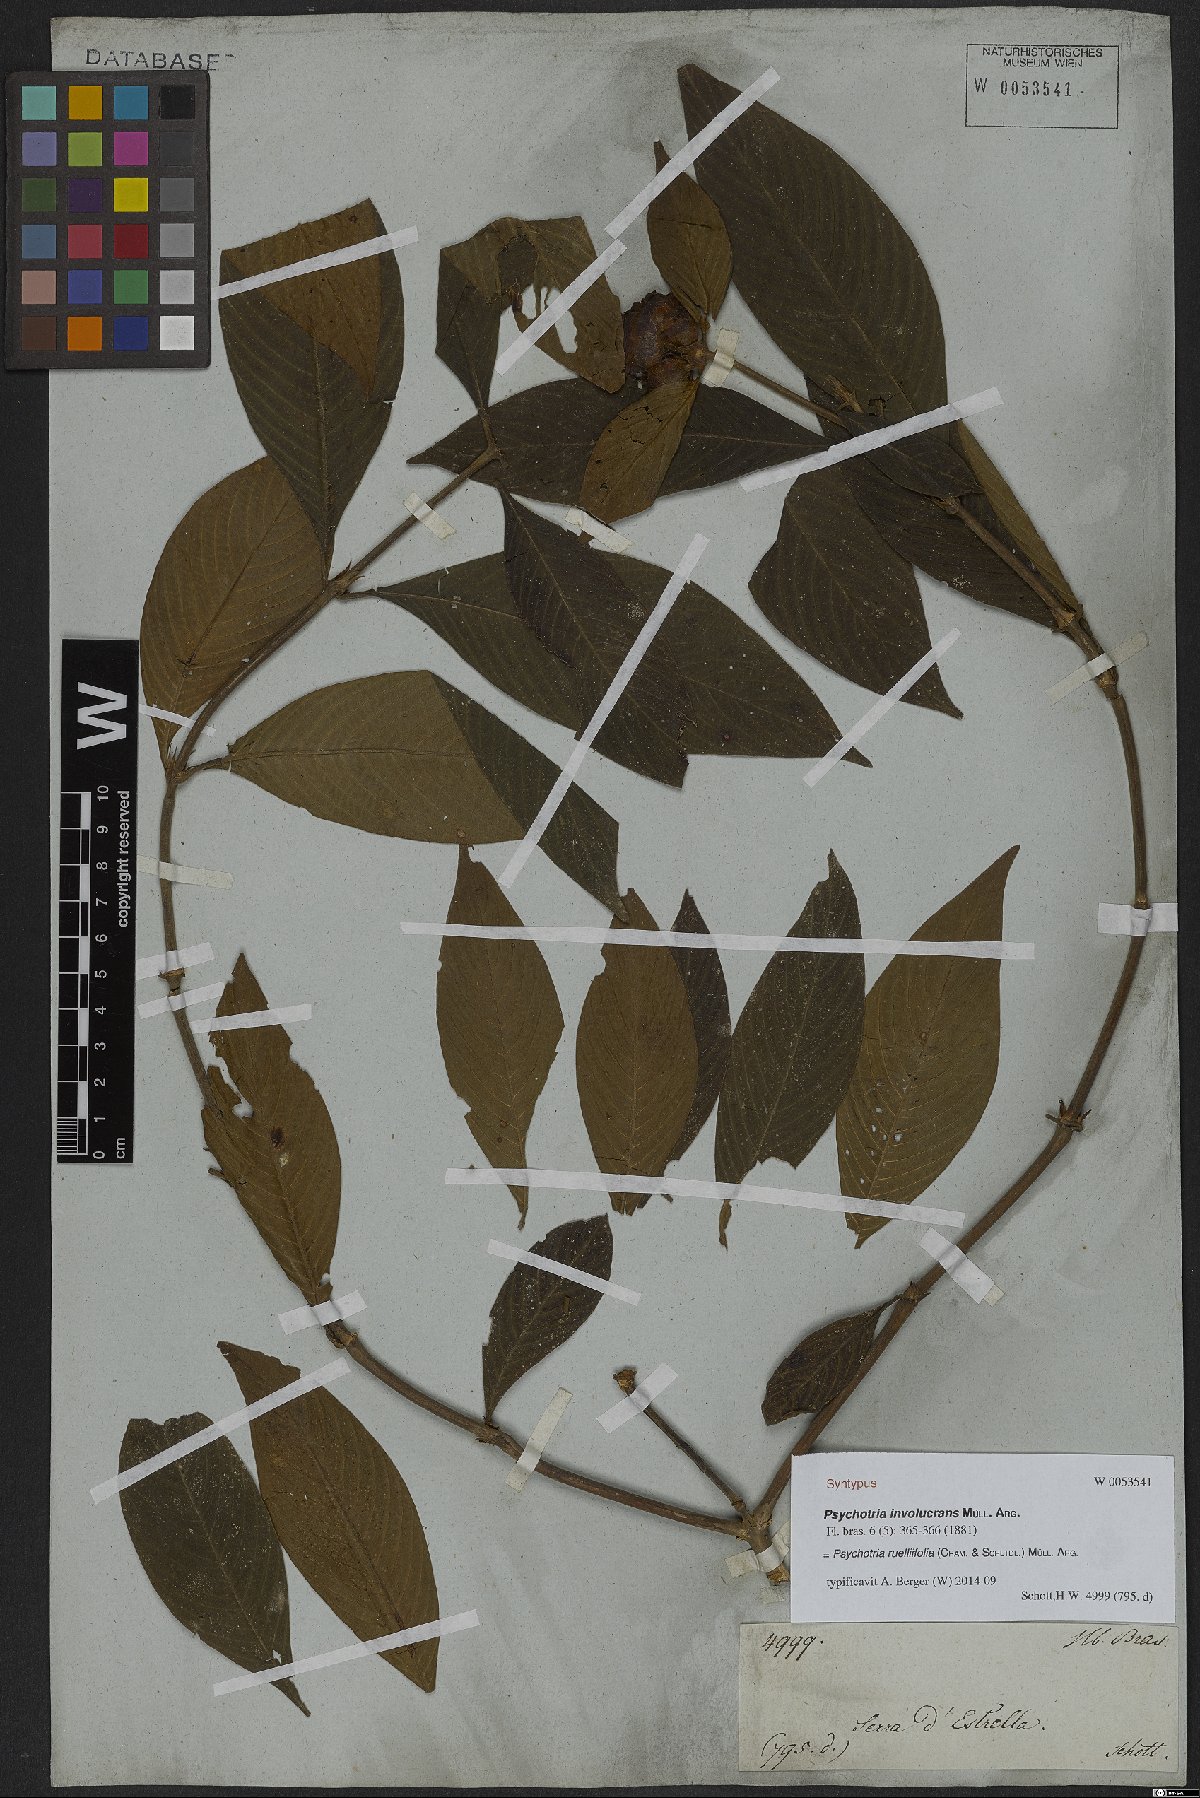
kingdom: Plantae
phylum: Tracheophyta
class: Magnoliopsida
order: Gentianales
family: Rubiaceae
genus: Palicourea
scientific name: Palicourea ruelliifolia
